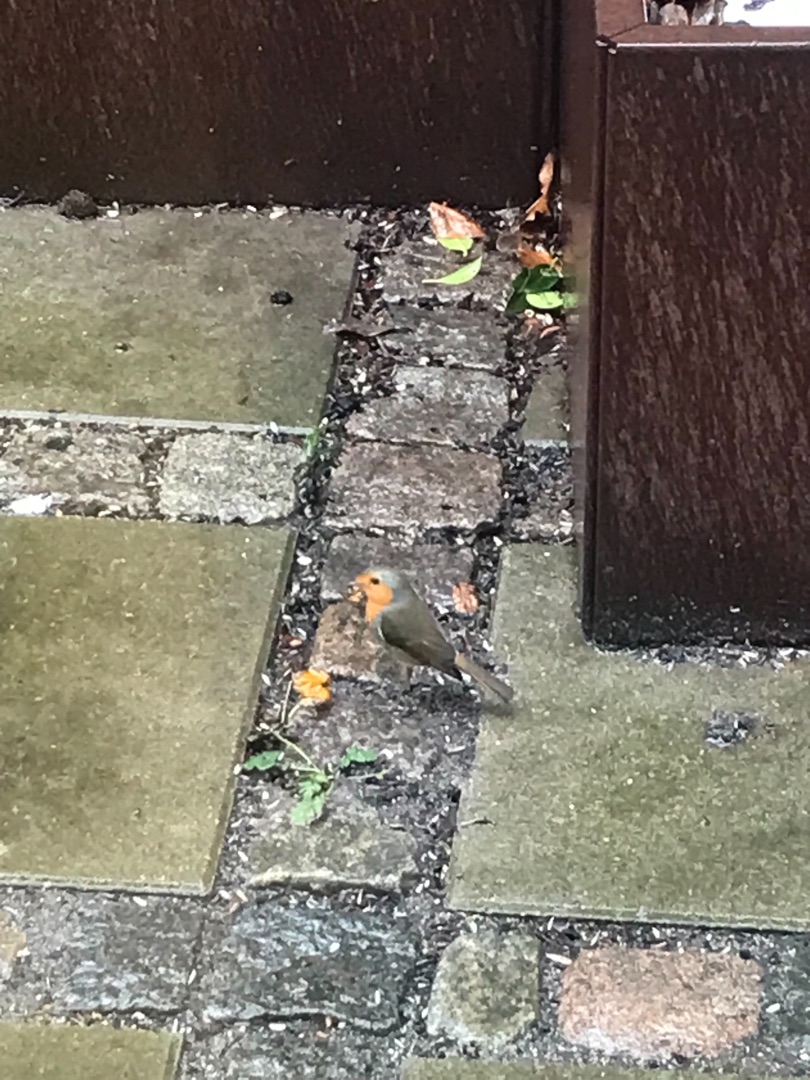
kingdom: Animalia
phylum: Chordata
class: Aves
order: Passeriformes
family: Muscicapidae
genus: Erithacus
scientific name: Erithacus rubecula
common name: Rødhals/rødkælk
